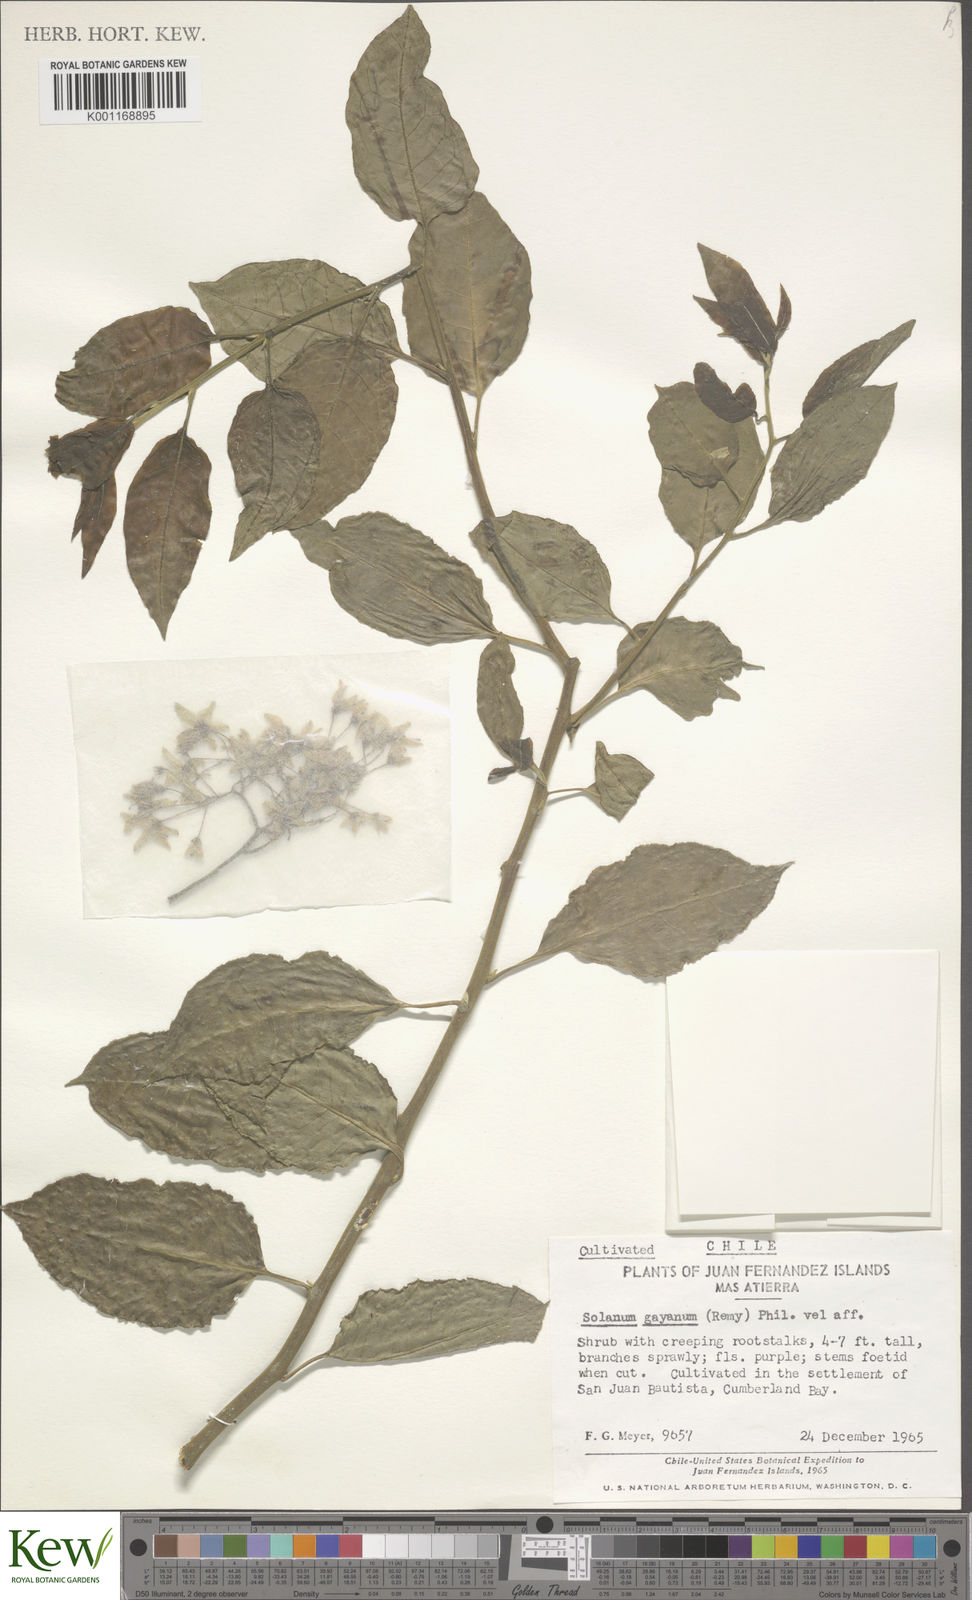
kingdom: Plantae
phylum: Tracheophyta
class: Magnoliopsida
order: Solanales
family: Solanaceae
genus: Solanum
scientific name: Solanum
